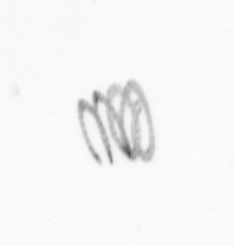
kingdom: Chromista
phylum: Ochrophyta
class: Bacillariophyceae
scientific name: Bacillariophyceae
